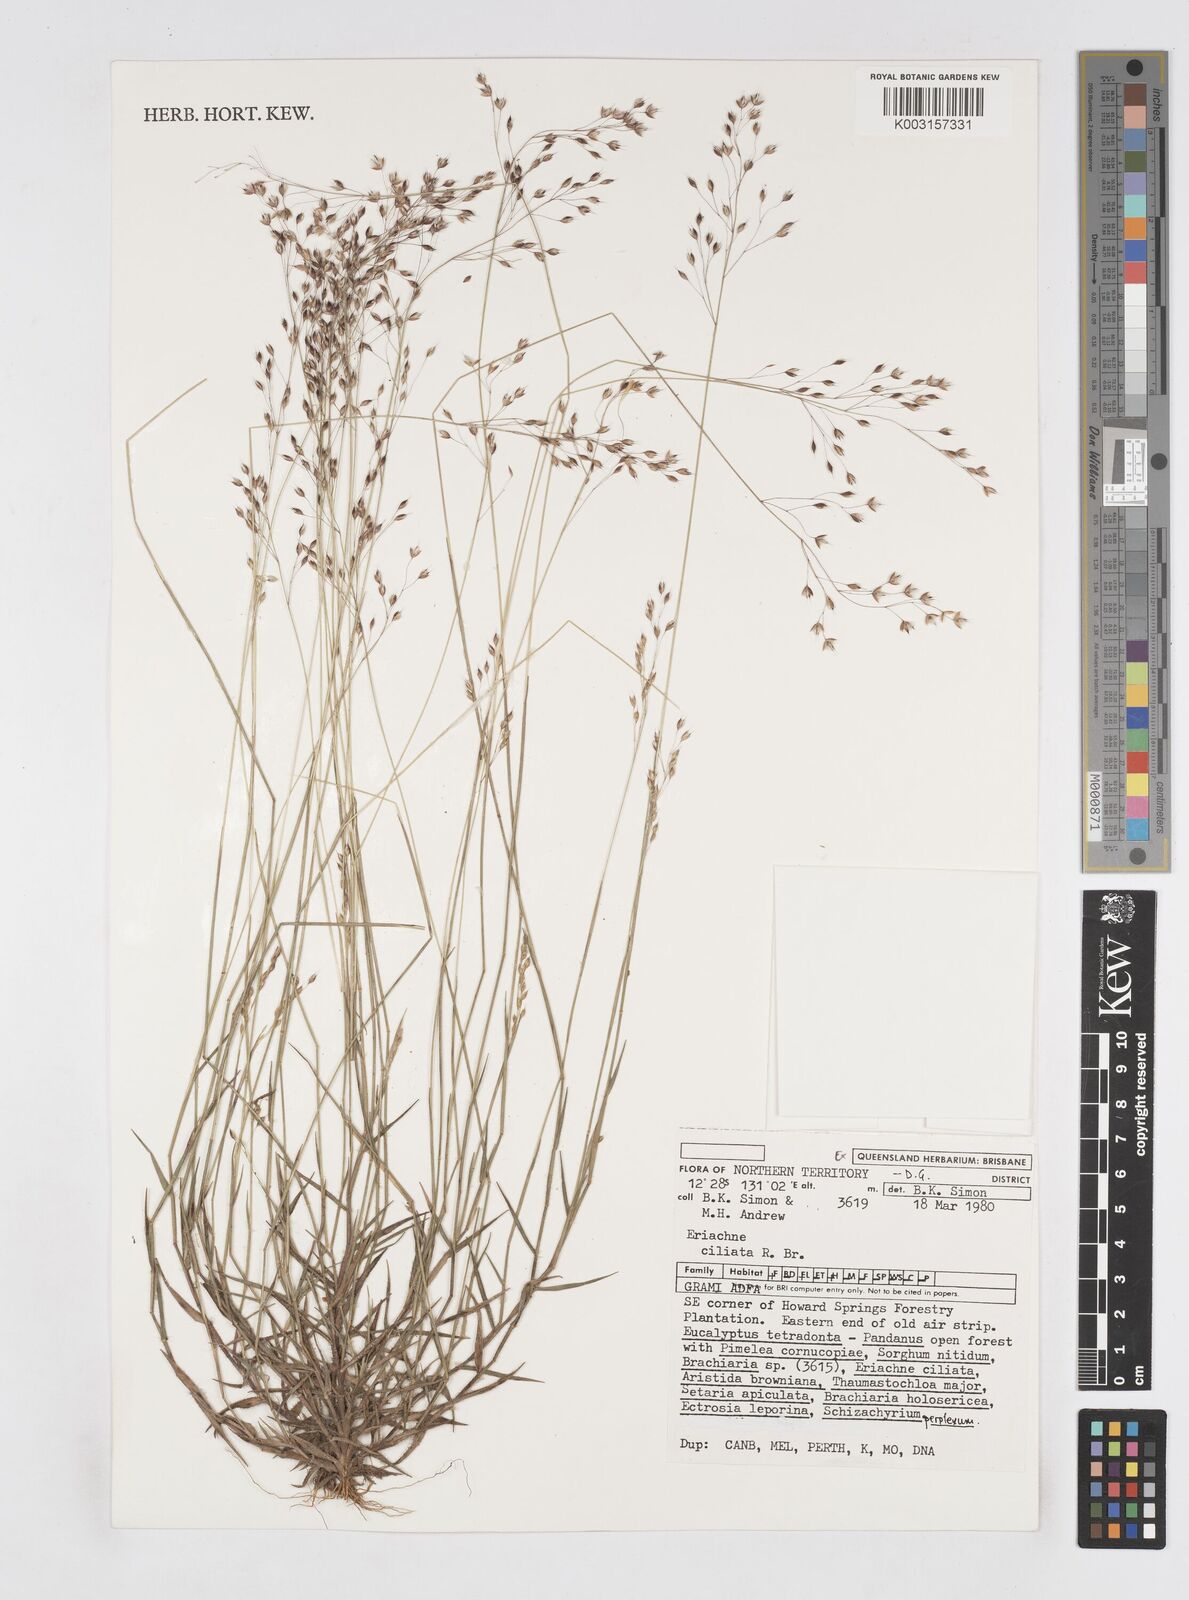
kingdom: Plantae
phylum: Tracheophyta
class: Liliopsida
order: Poales
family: Poaceae
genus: Eriachne
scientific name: Eriachne ciliata
